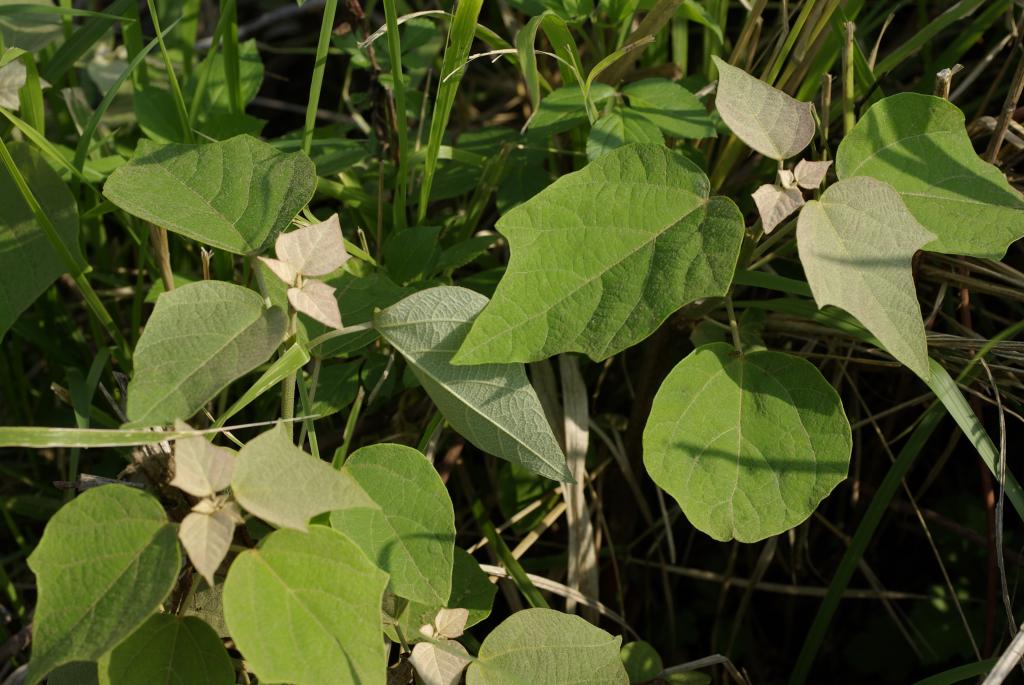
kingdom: Plantae
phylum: Tracheophyta
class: Magnoliopsida
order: Malpighiales
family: Euphorbiaceae
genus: Mallotus
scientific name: Mallotus paniculatus
